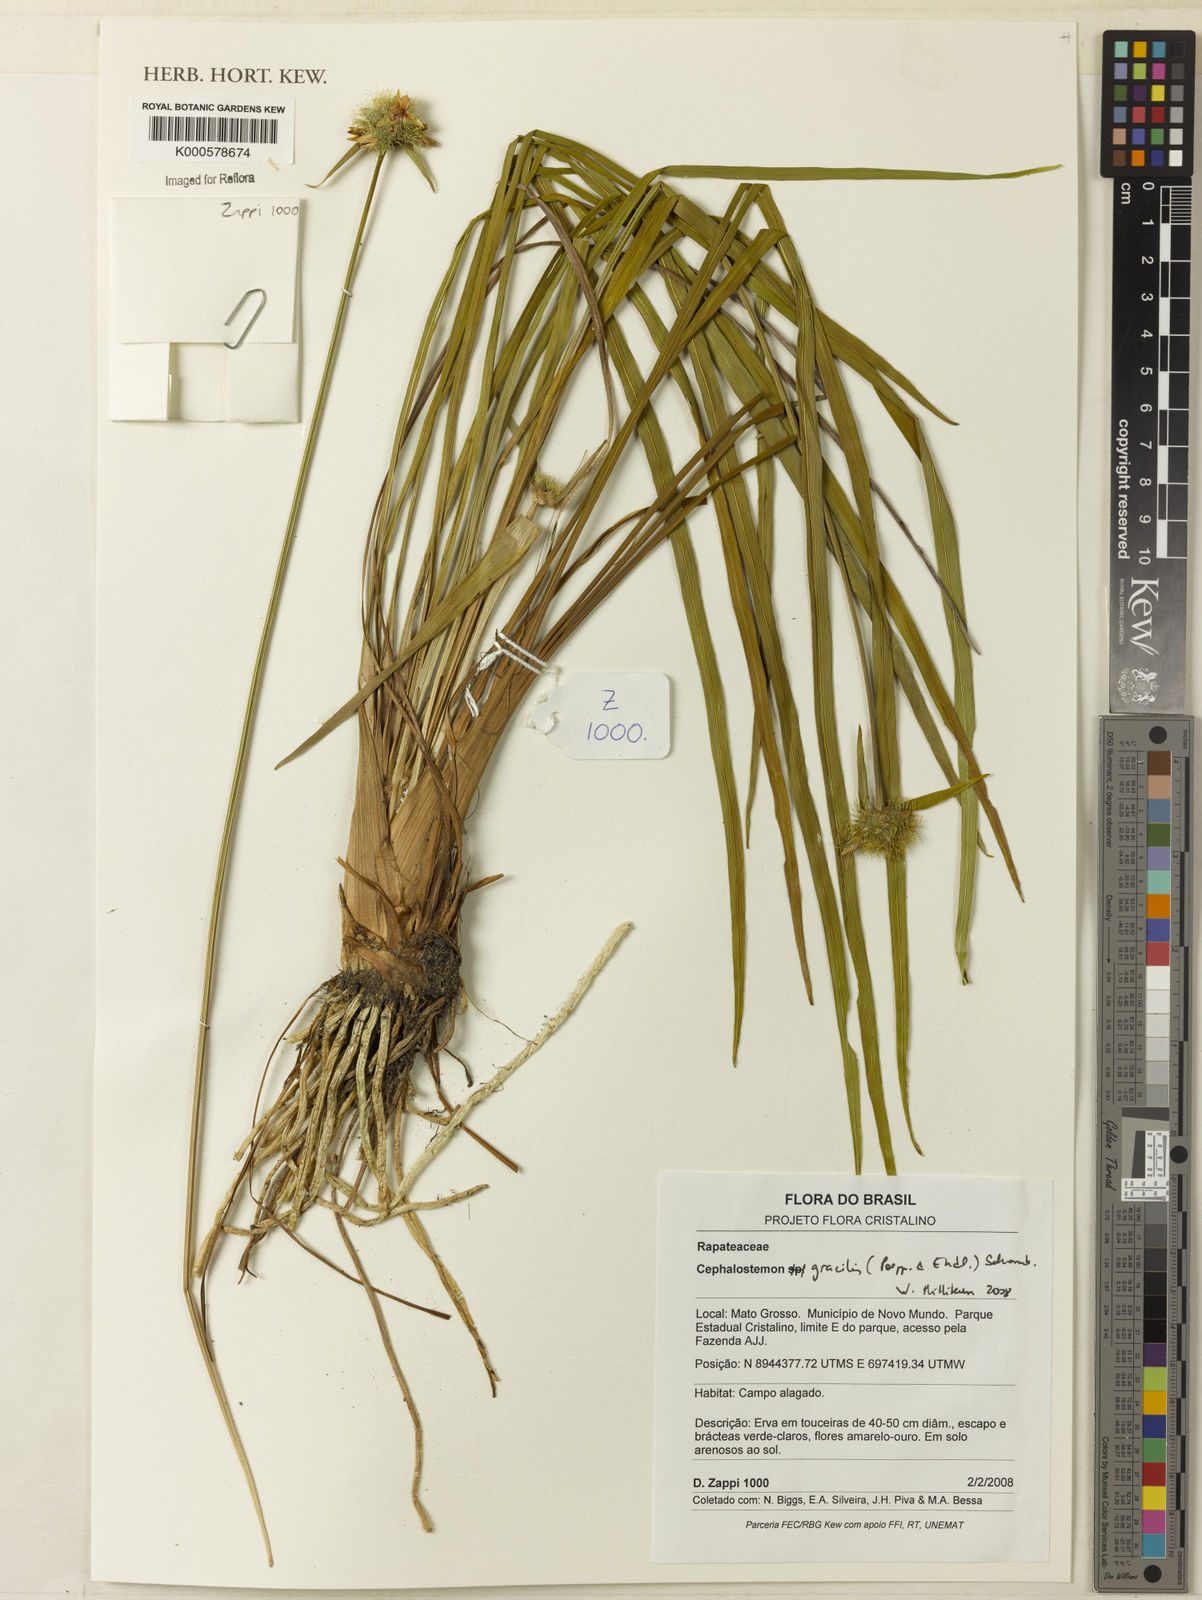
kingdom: Plantae
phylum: Tracheophyta
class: Liliopsida
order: Poales
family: Rapateaceae
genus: Cephalostemon
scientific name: Cephalostemon gracilis
